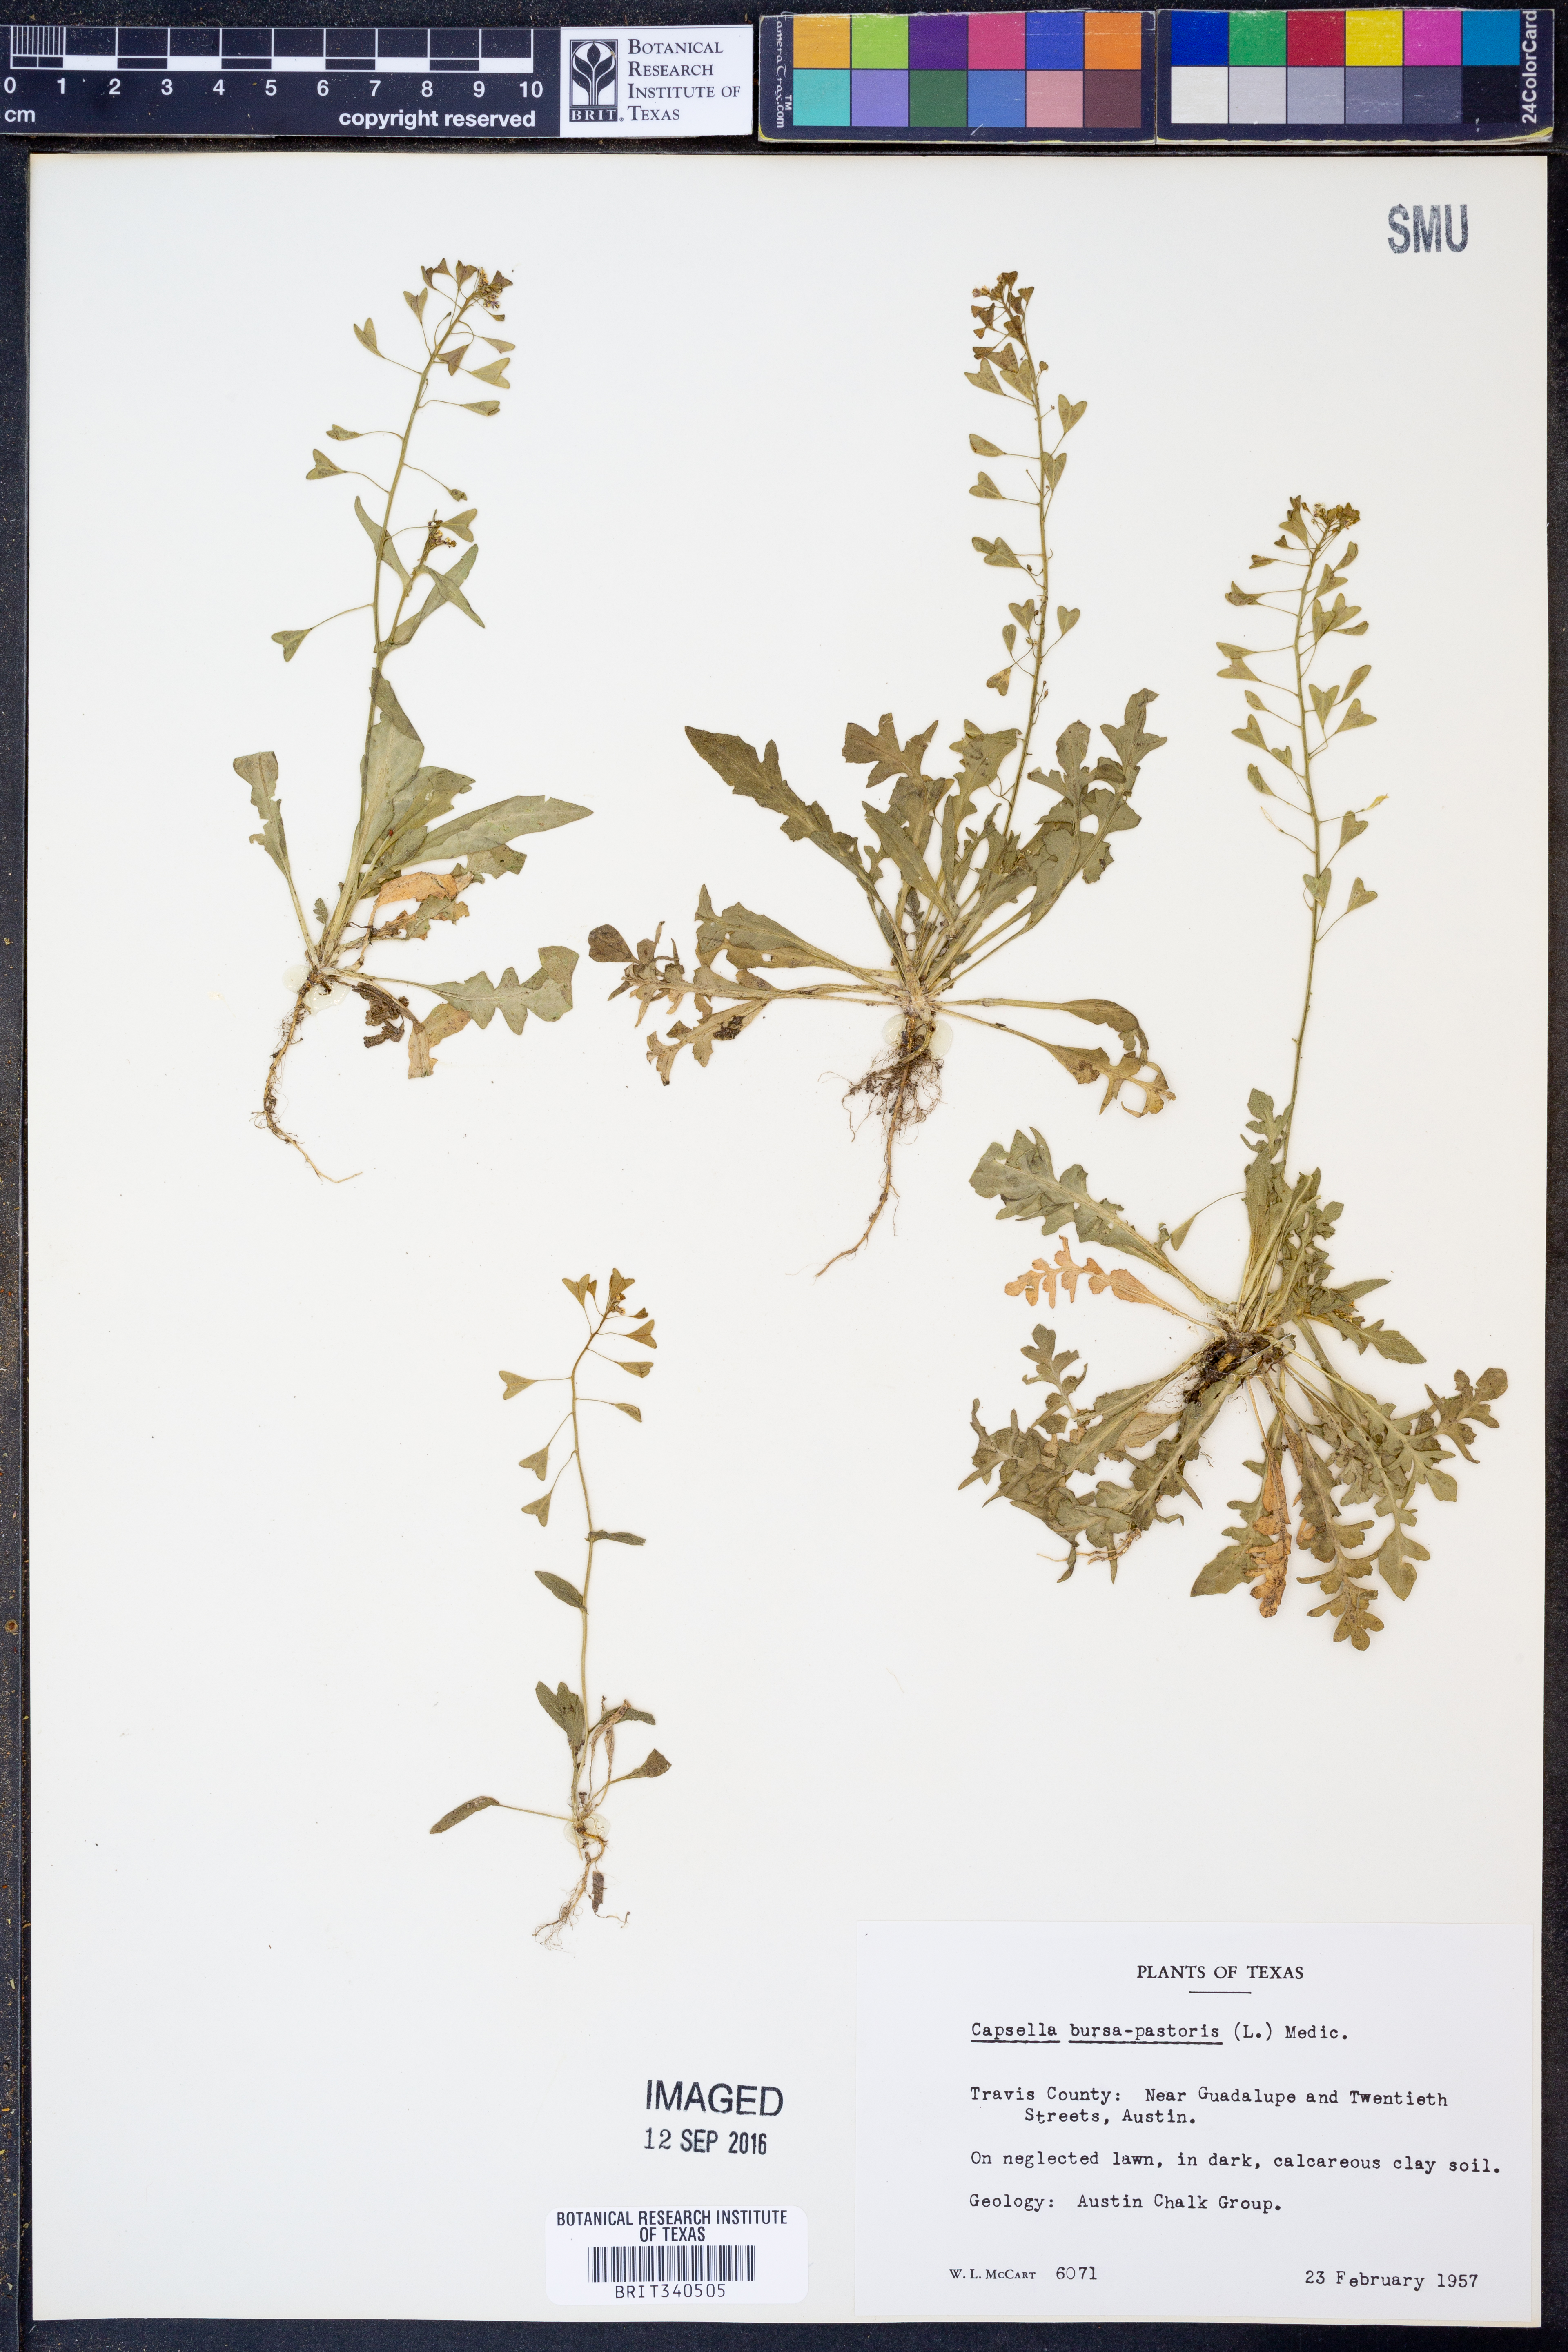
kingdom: Plantae
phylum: Tracheophyta
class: Magnoliopsida
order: Brassicales
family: Brassicaceae
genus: Capsella
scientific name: Capsella bursa-pastoris
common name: Shepherd's purse
